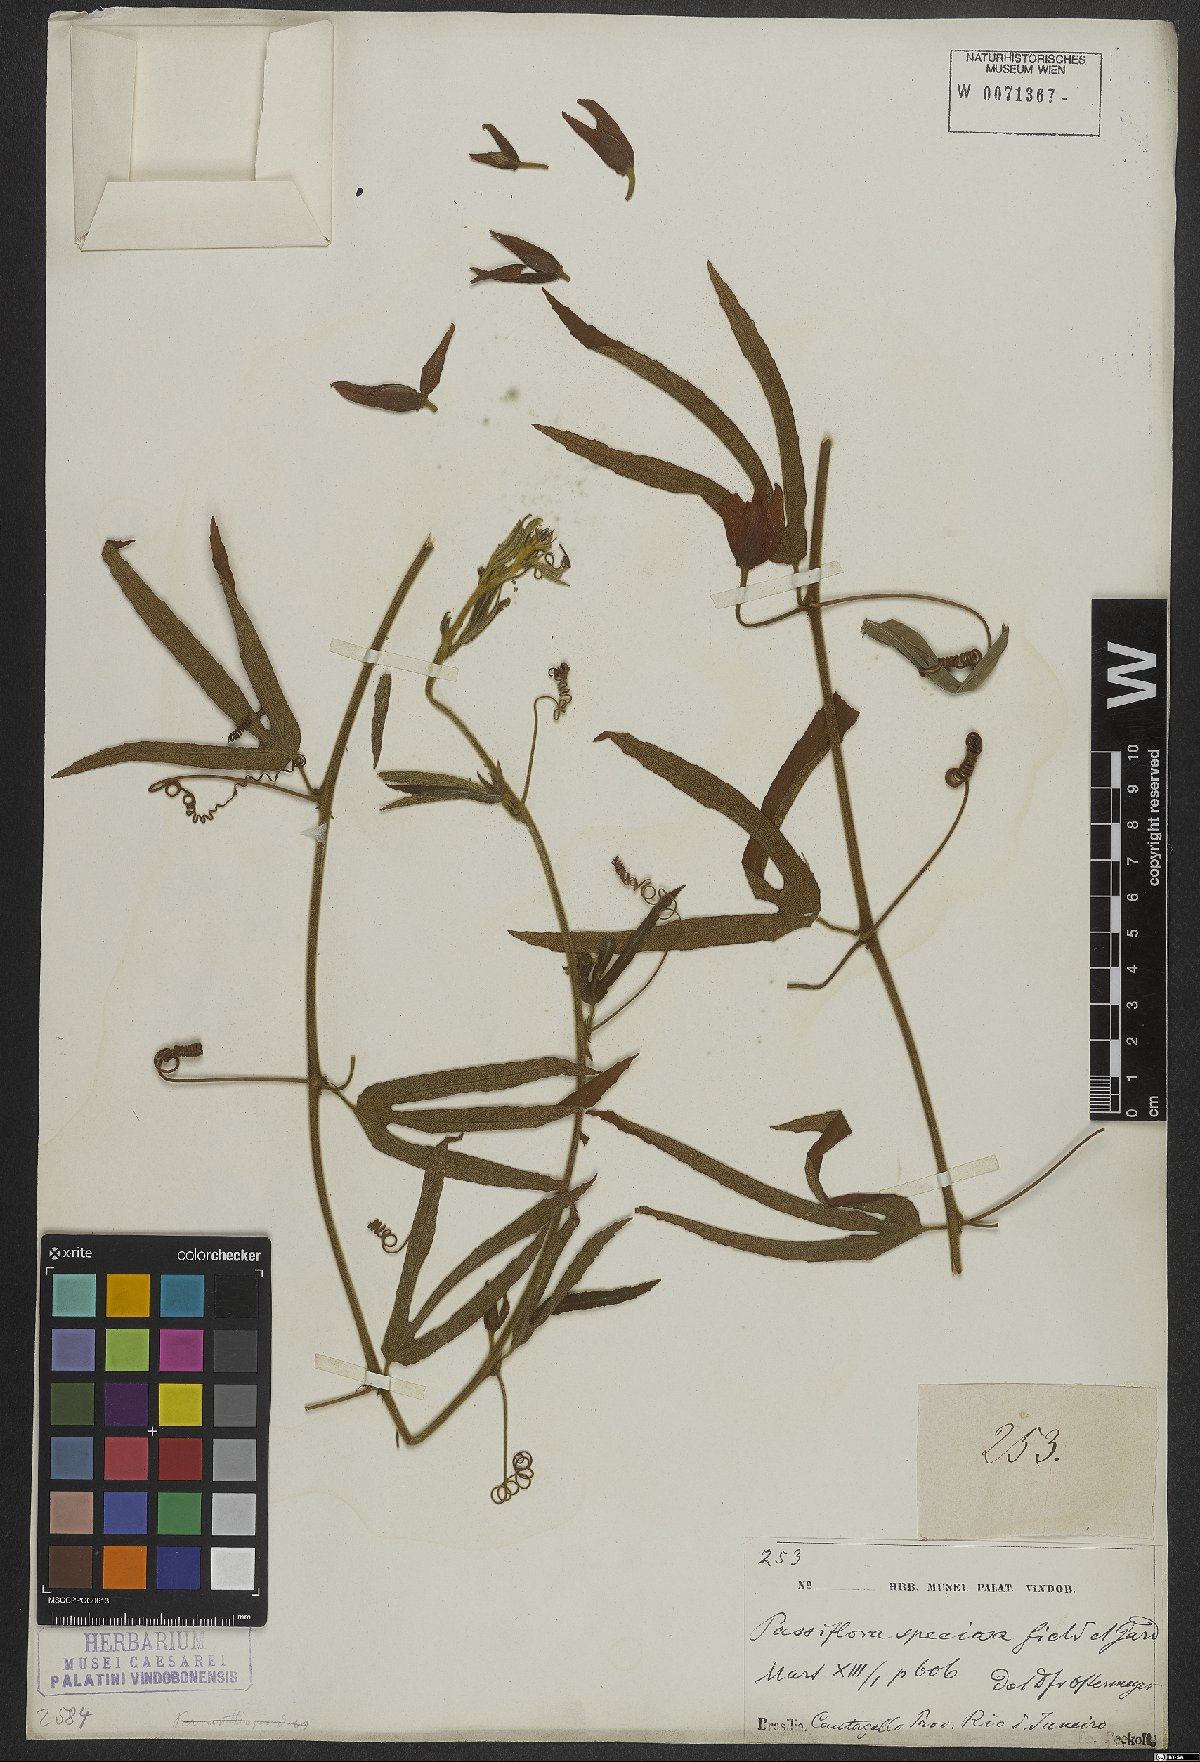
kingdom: Plantae
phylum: Tracheophyta
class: Magnoliopsida
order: Malpighiales
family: Passifloraceae
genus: Passiflora
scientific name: Passiflora speciosa
